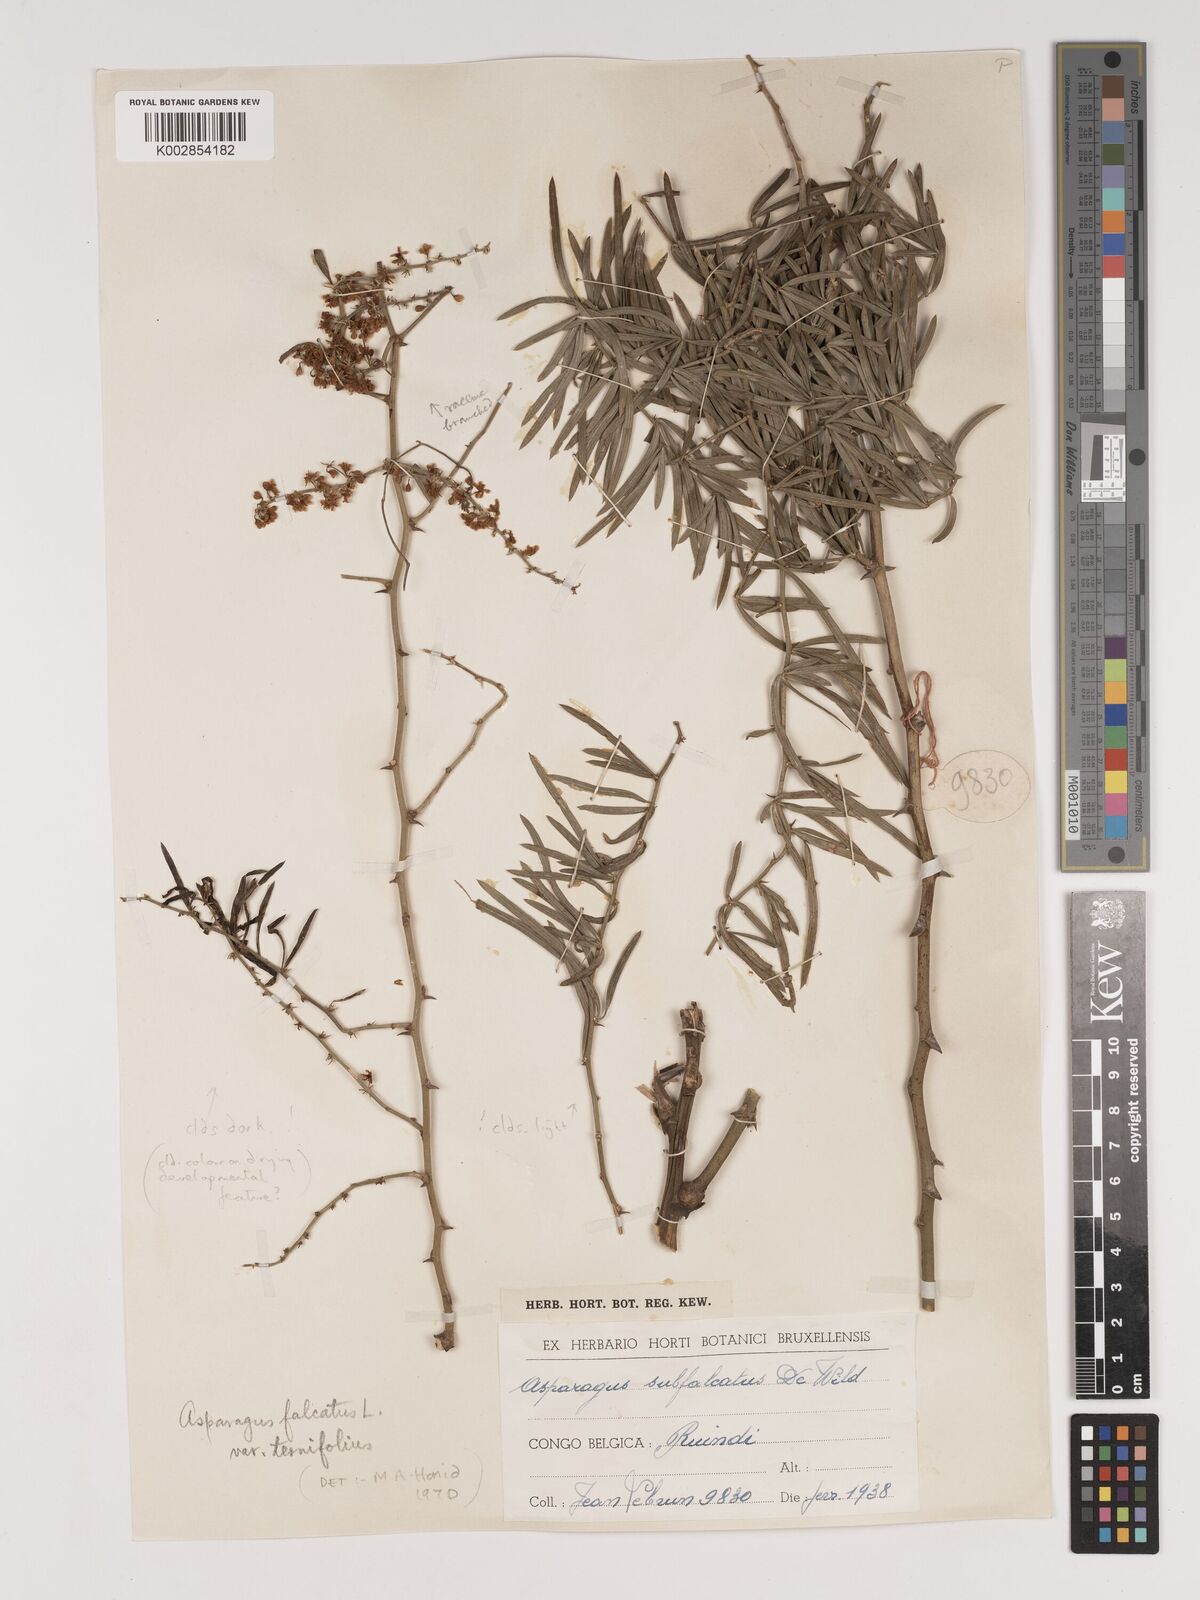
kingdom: Plantae
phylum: Tracheophyta
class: Liliopsida
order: Asparagales
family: Asparagaceae
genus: Asparagus
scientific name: Asparagus falcatus
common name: Asparagus
